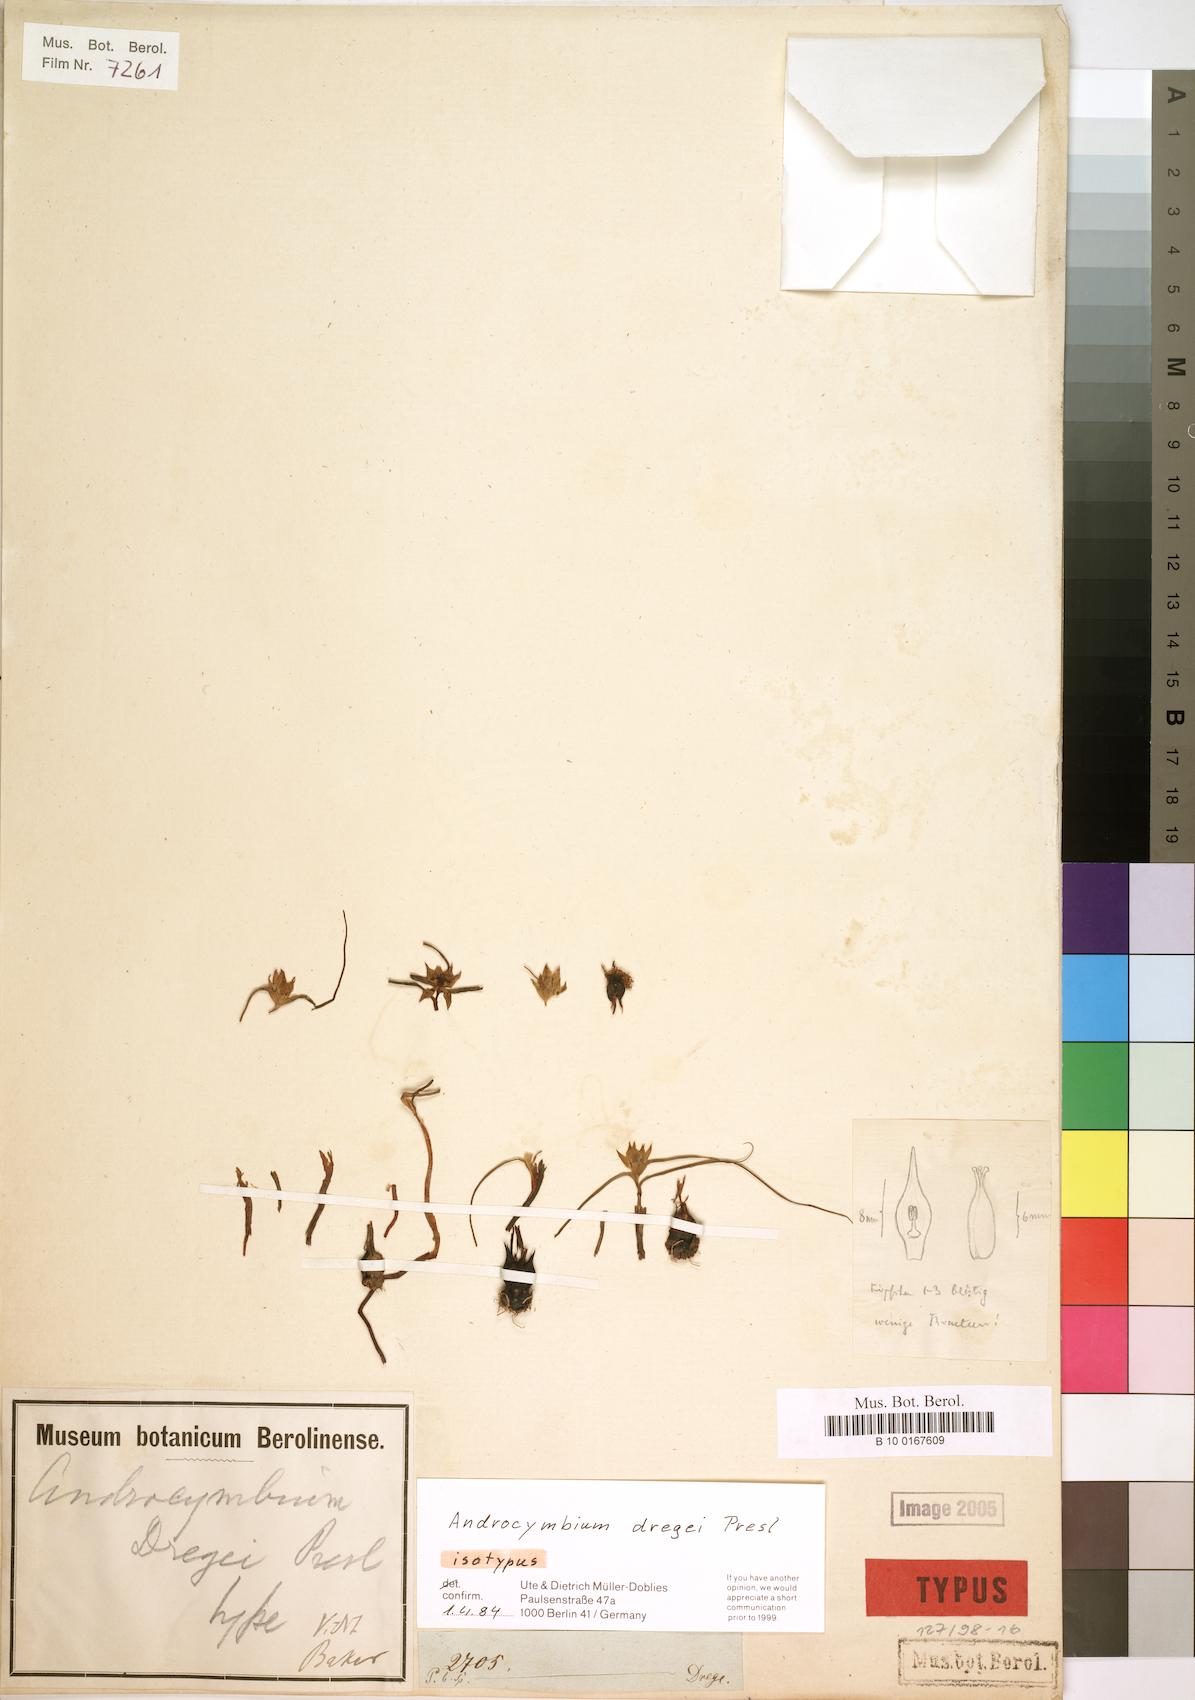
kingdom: Plantae
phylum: Tracheophyta
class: Liliopsida
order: Liliales
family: Colchicaceae
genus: Colchicum
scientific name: Colchicum dregei
